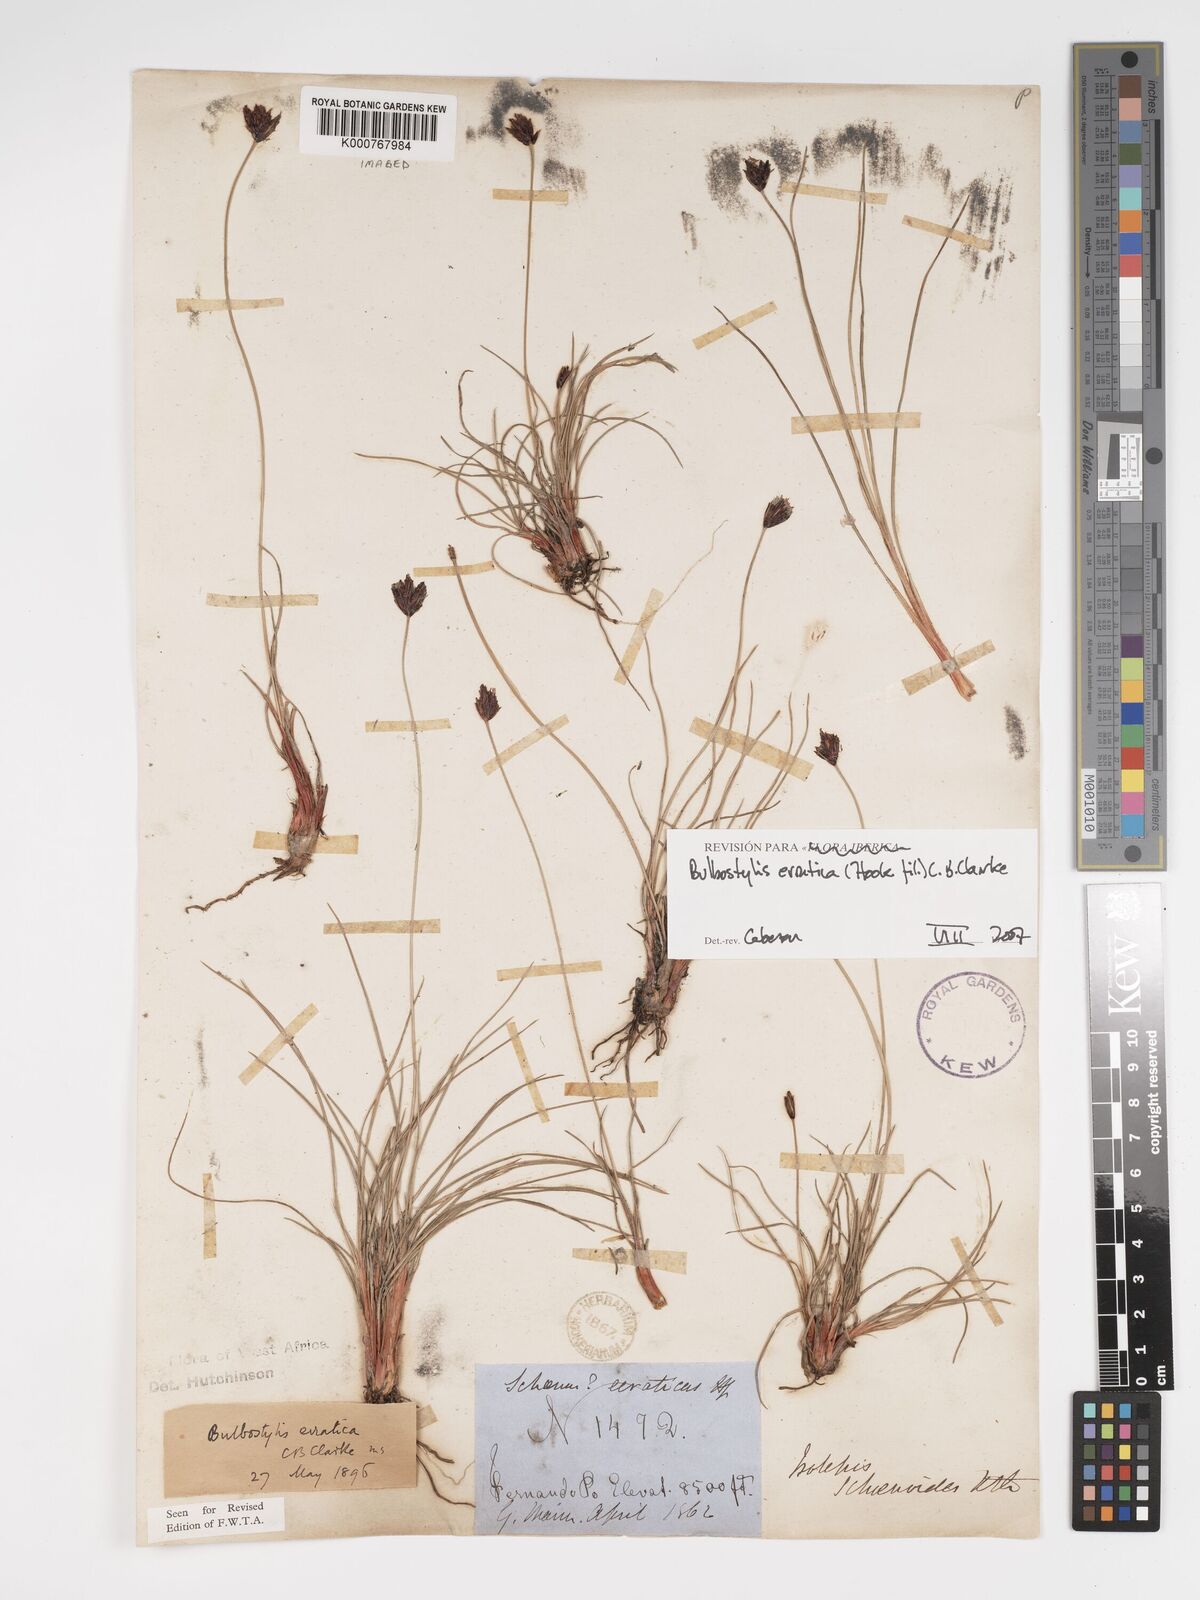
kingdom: Plantae
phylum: Tracheophyta
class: Liliopsida
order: Poales
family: Cyperaceae
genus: Bulbostylis
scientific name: Bulbostylis schoenoides
